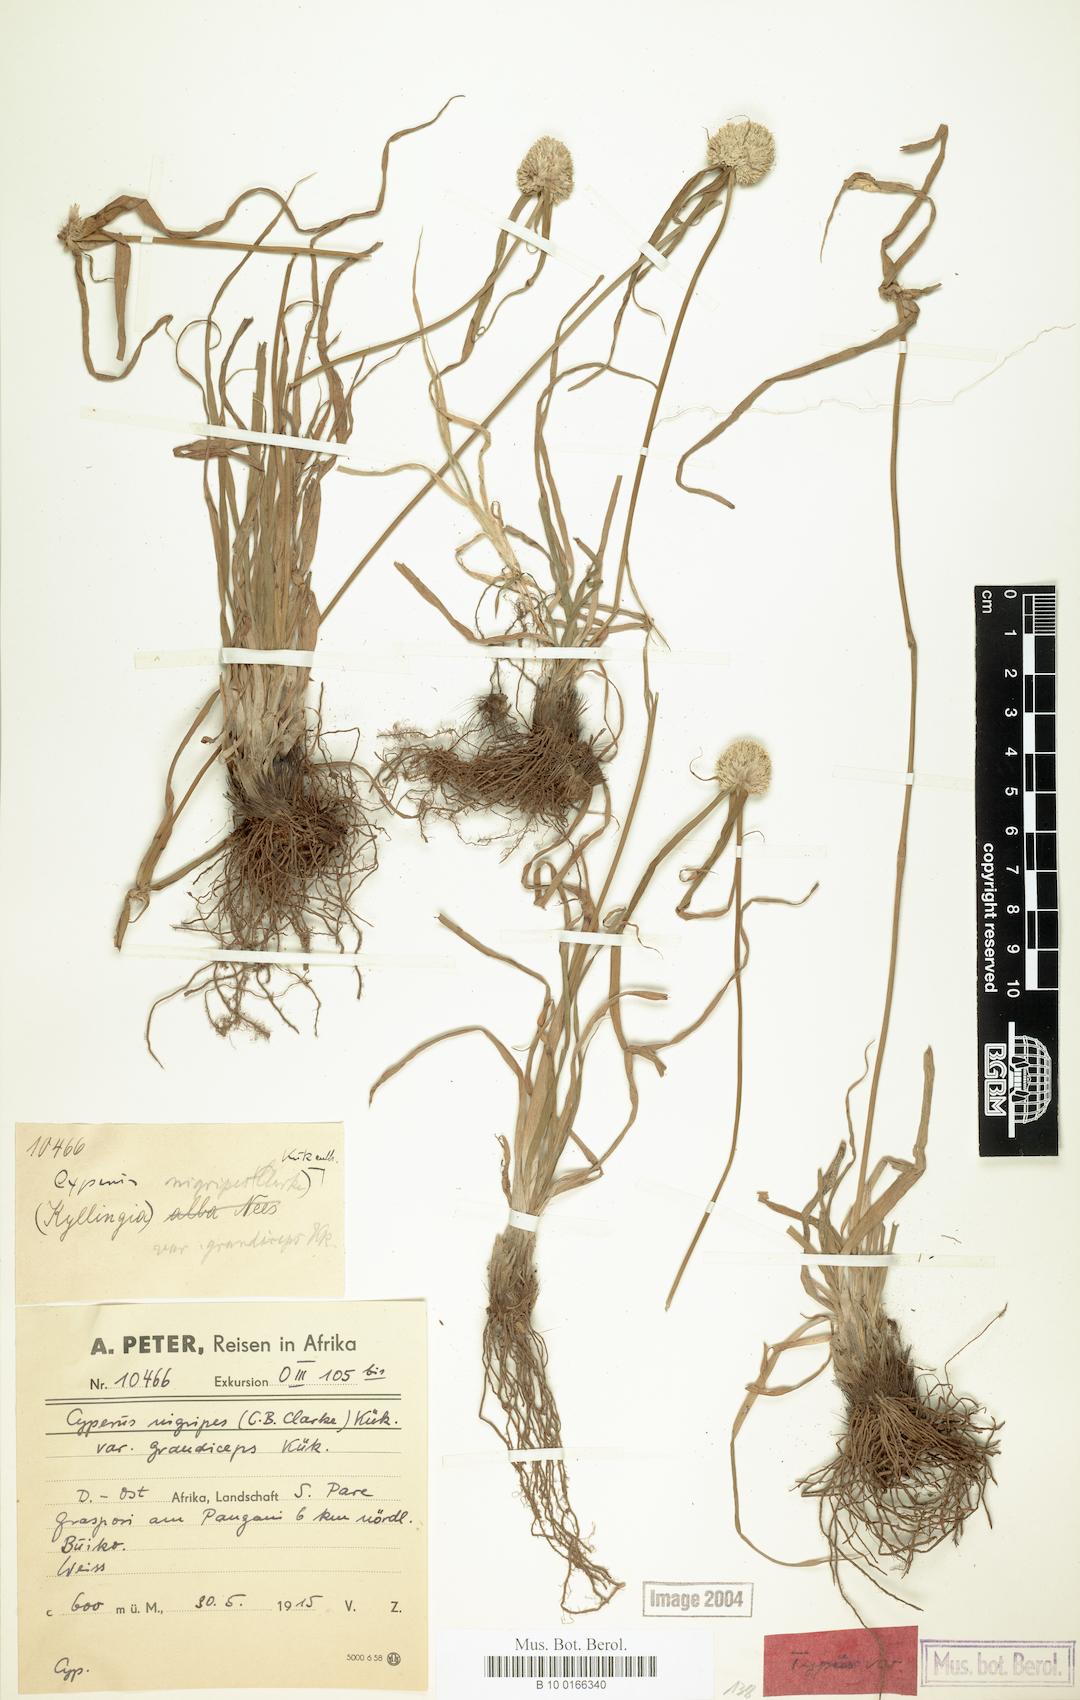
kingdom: Plantae
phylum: Tracheophyta
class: Liliopsida
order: Poales
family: Cyperaceae
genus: Cyperus
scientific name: Cyperus alatus
